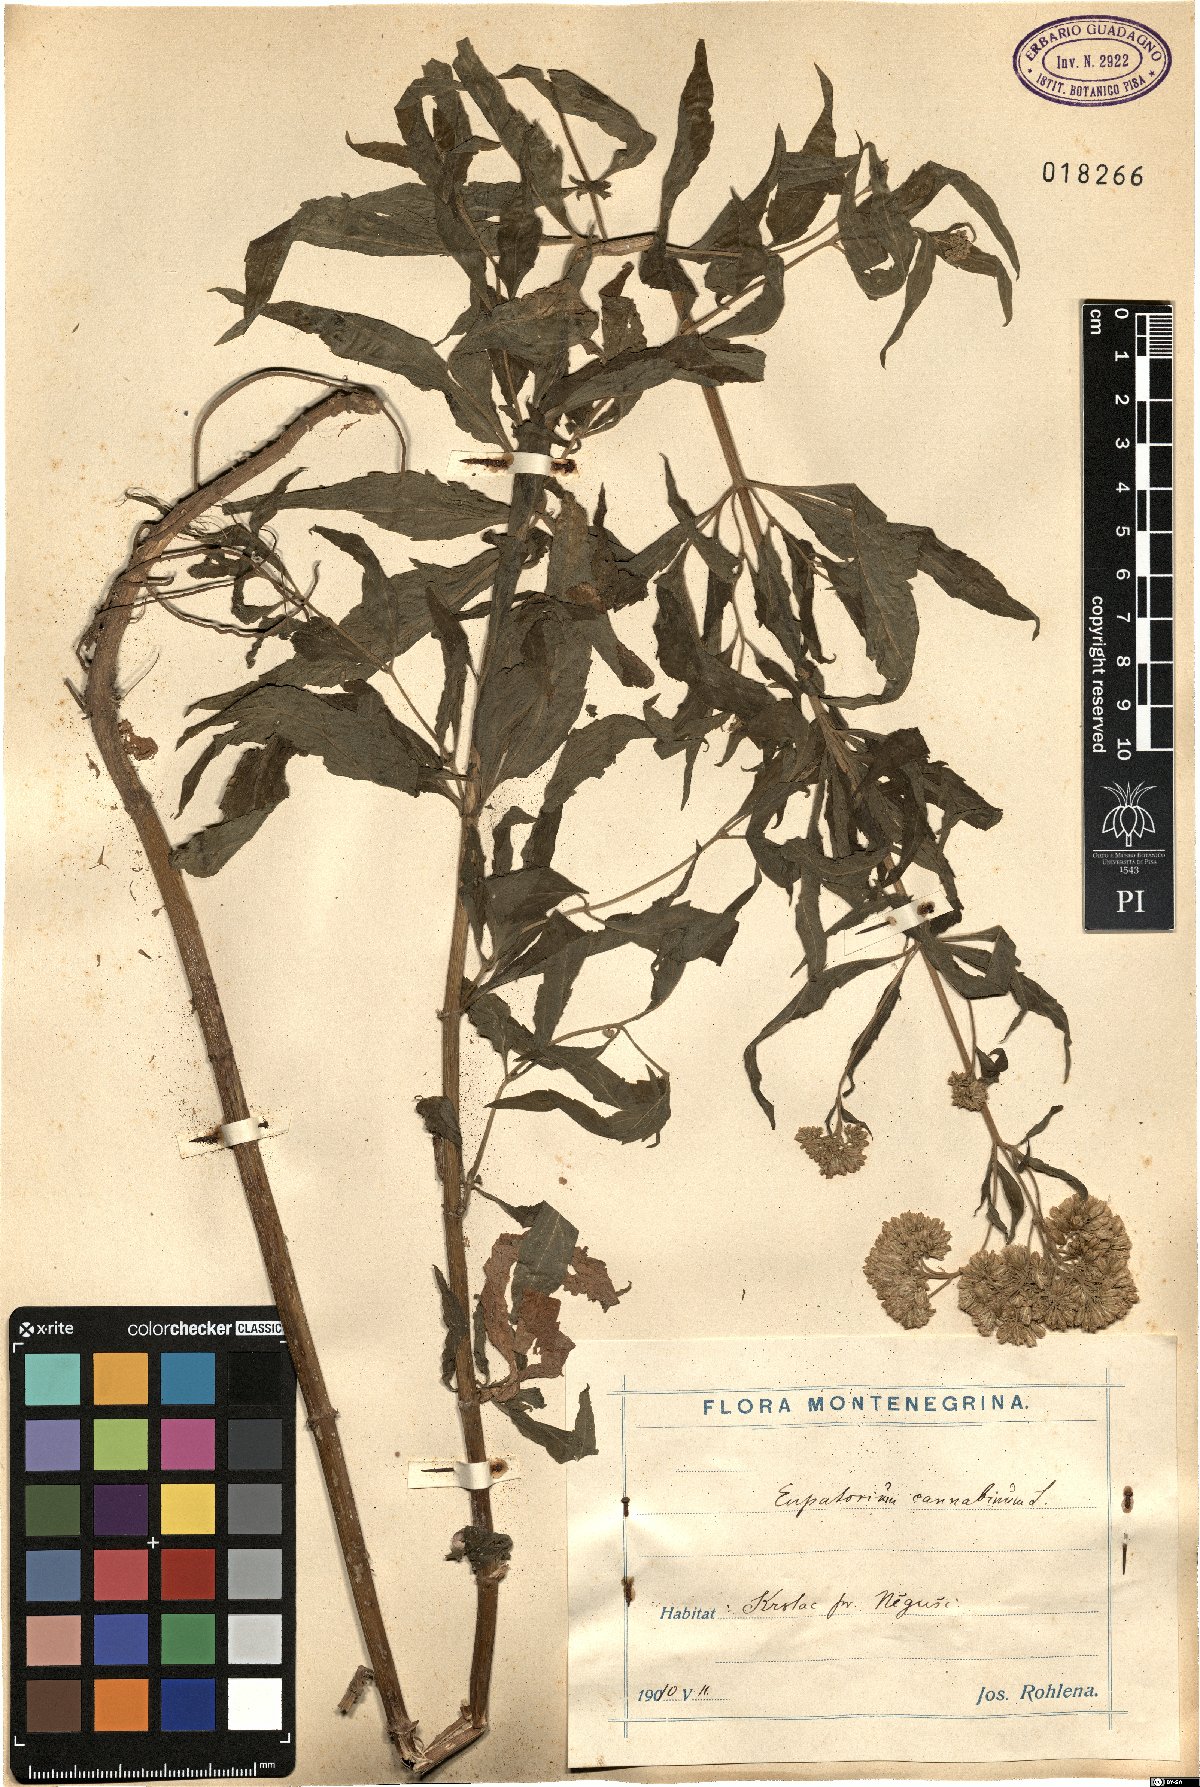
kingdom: Plantae
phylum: Tracheophyta
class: Magnoliopsida
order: Asterales
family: Asteraceae
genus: Eupatorium
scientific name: Eupatorium cannabinum
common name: Hemp-agrimony
